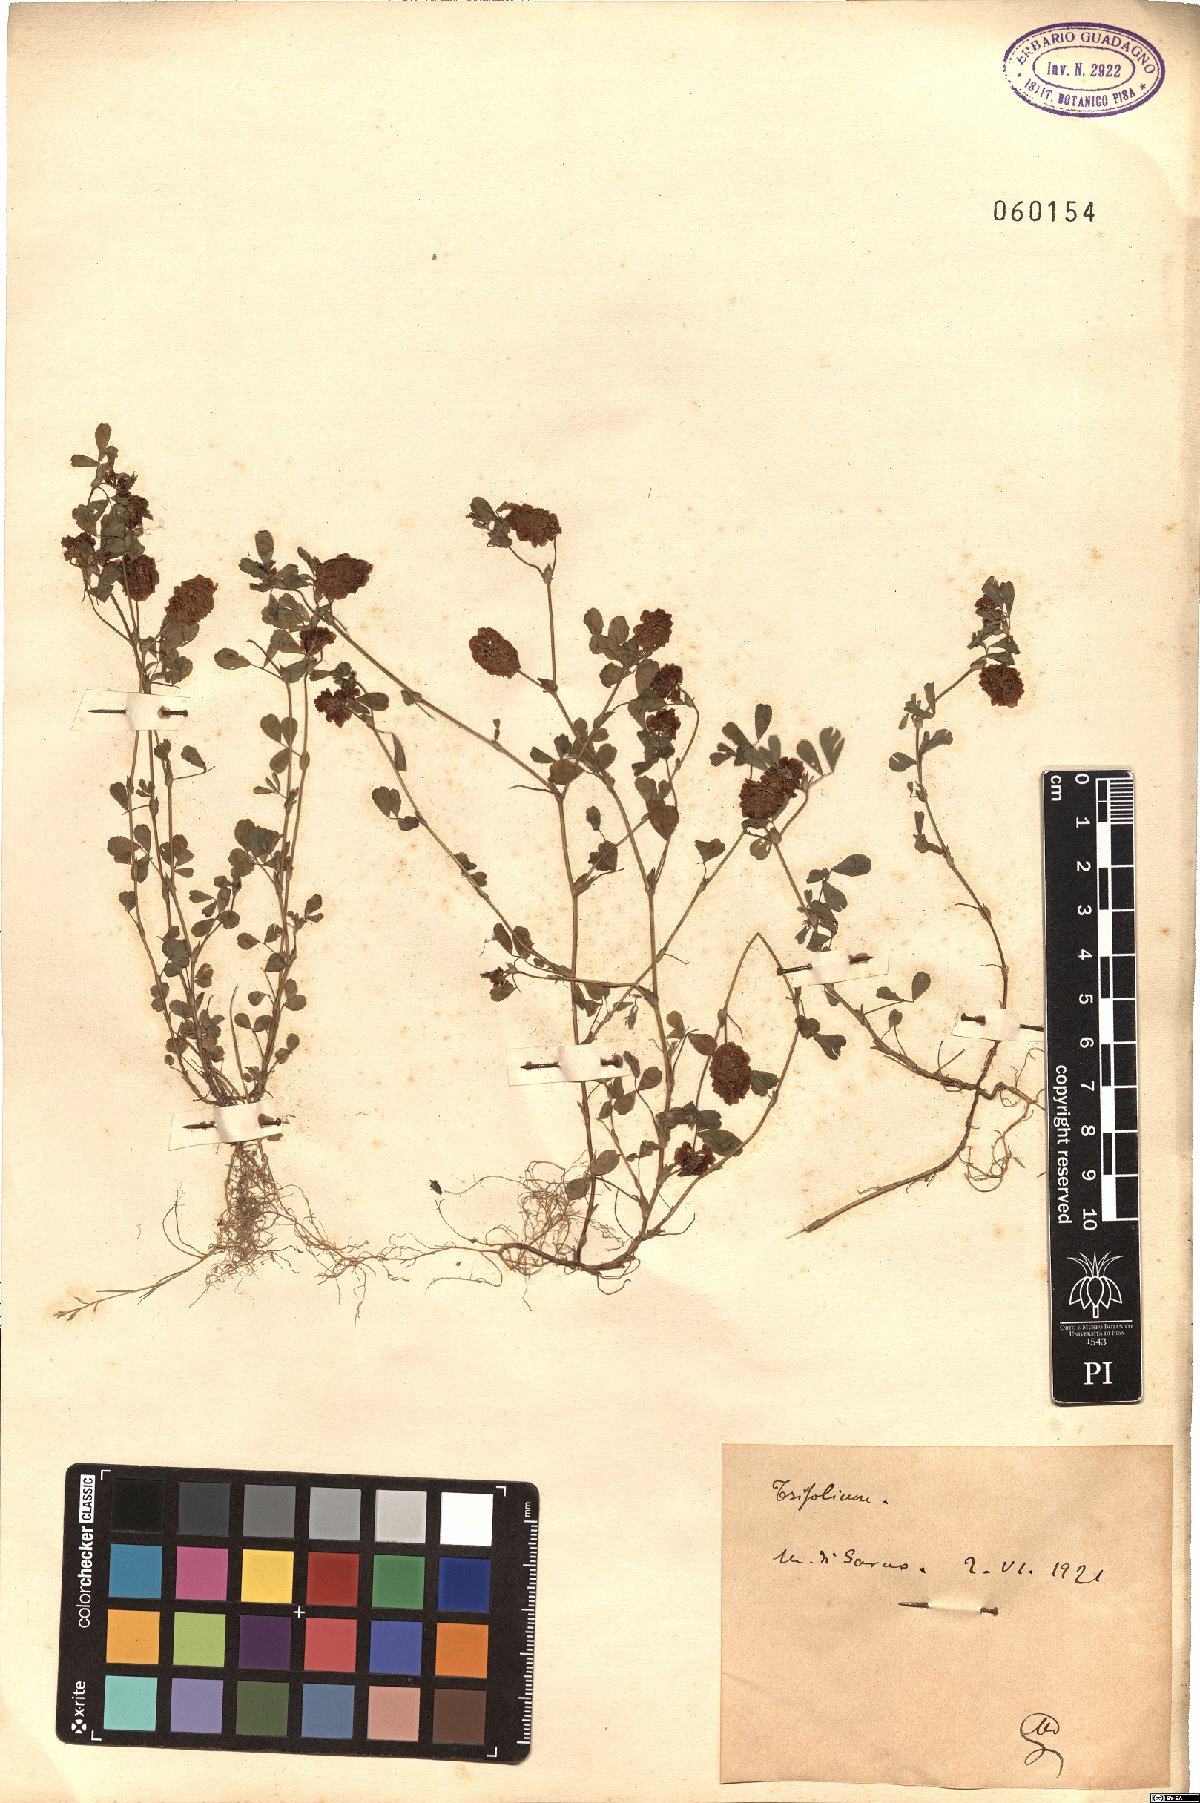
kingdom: Plantae
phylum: Tracheophyta
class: Magnoliopsida
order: Fabales
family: Fabaceae
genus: Trifolium
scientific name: Trifolium
